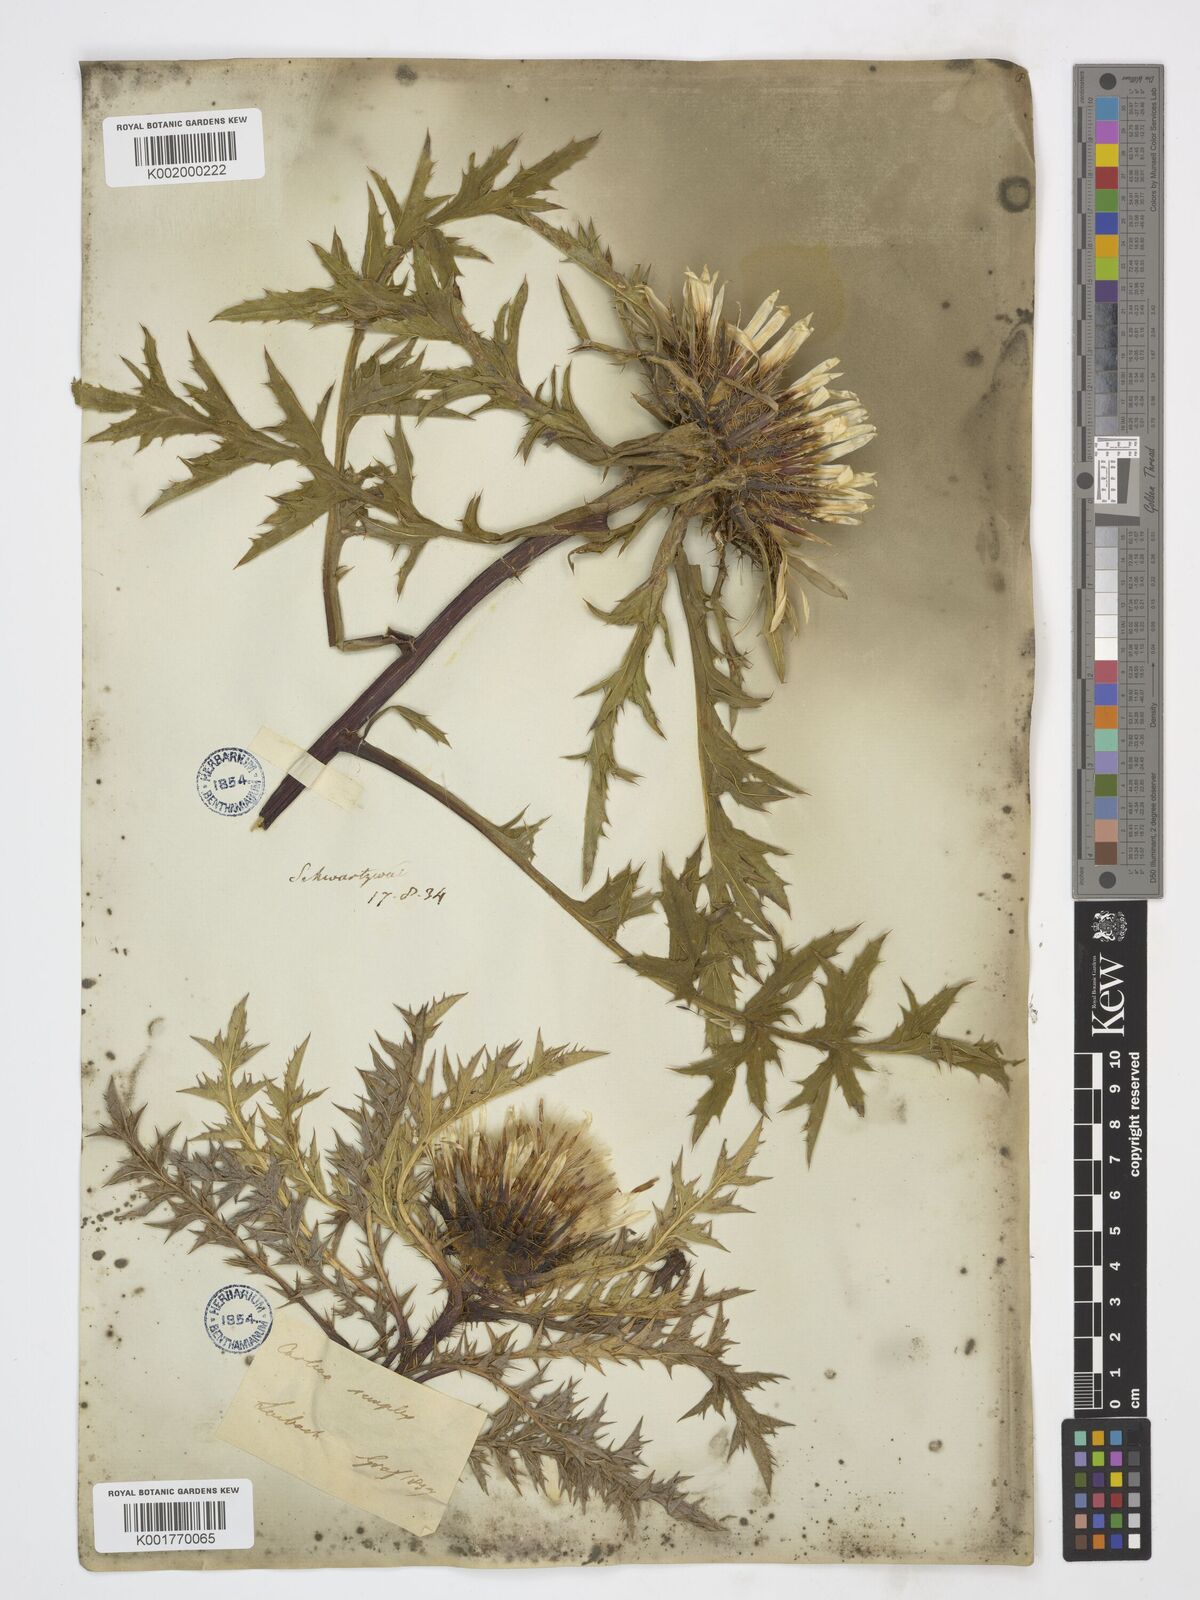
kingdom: Plantae
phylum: Tracheophyta
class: Magnoliopsida
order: Asterales
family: Asteraceae
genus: Carlina
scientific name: Carlina acaulis
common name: Stemless carline thistle
